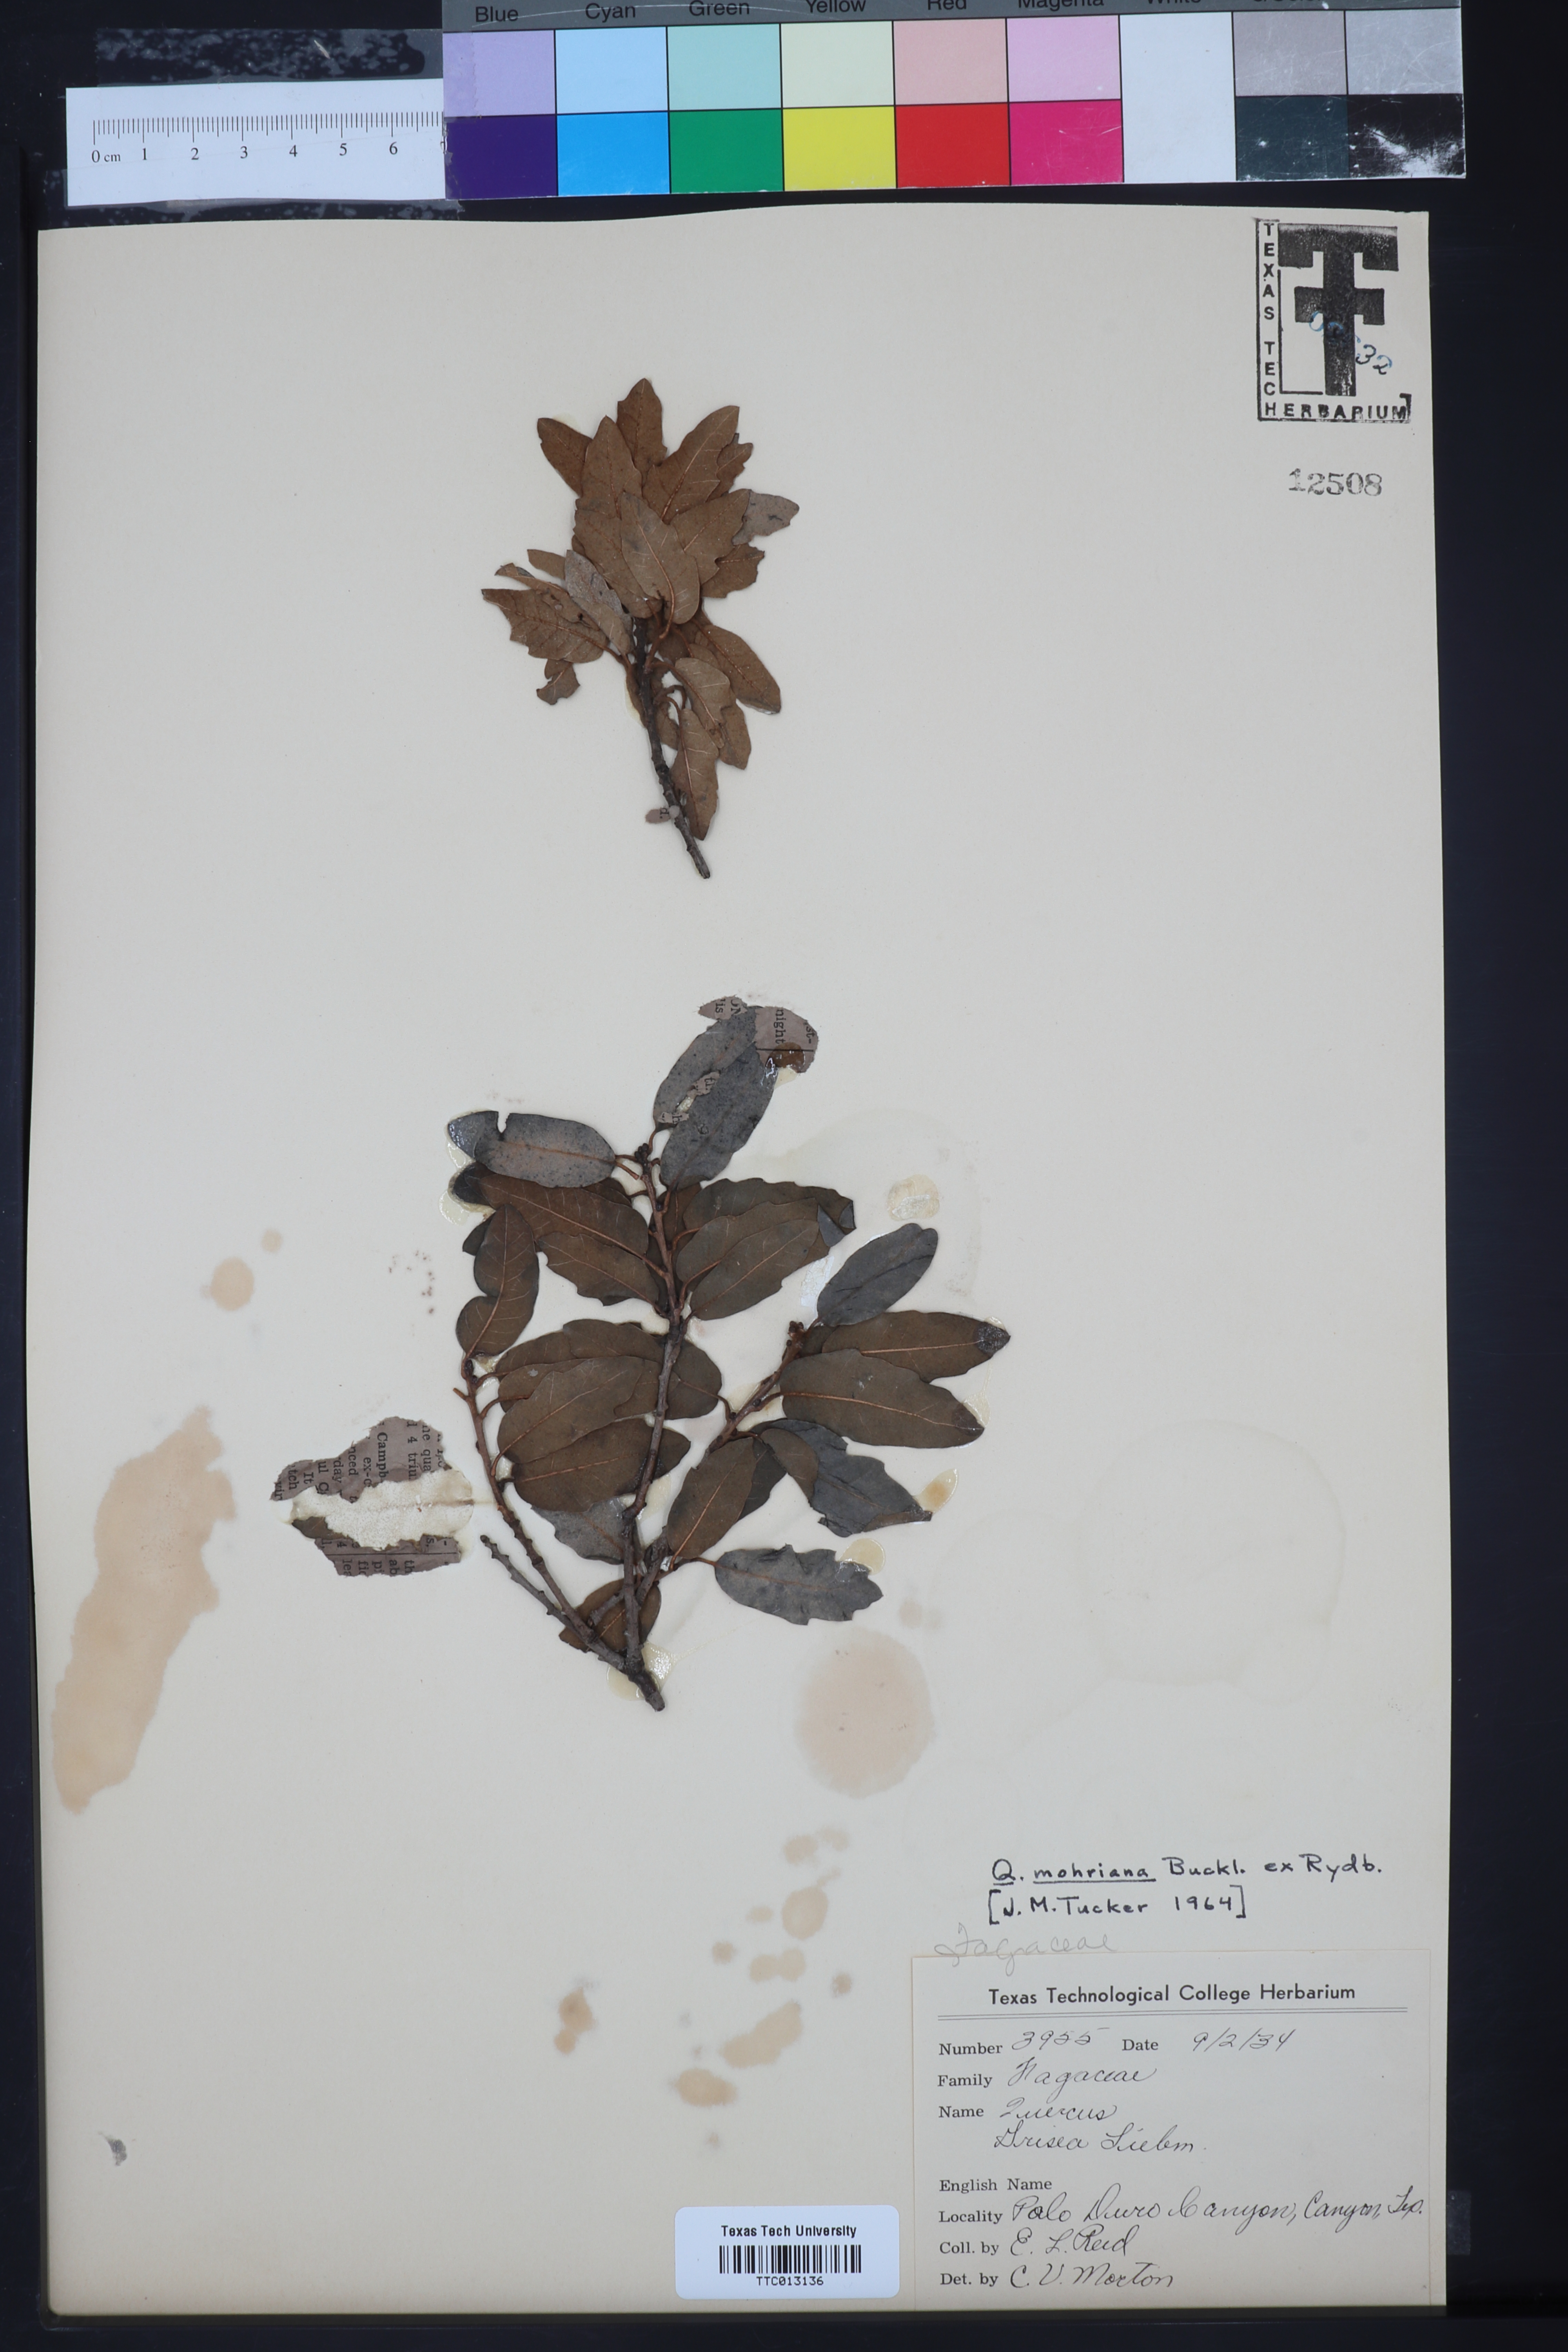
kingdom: Plantae
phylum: Tracheophyta
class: Magnoliopsida
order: Fagales
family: Fagaceae
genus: Quercus
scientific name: Quercus mohriana
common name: Mohr oak
